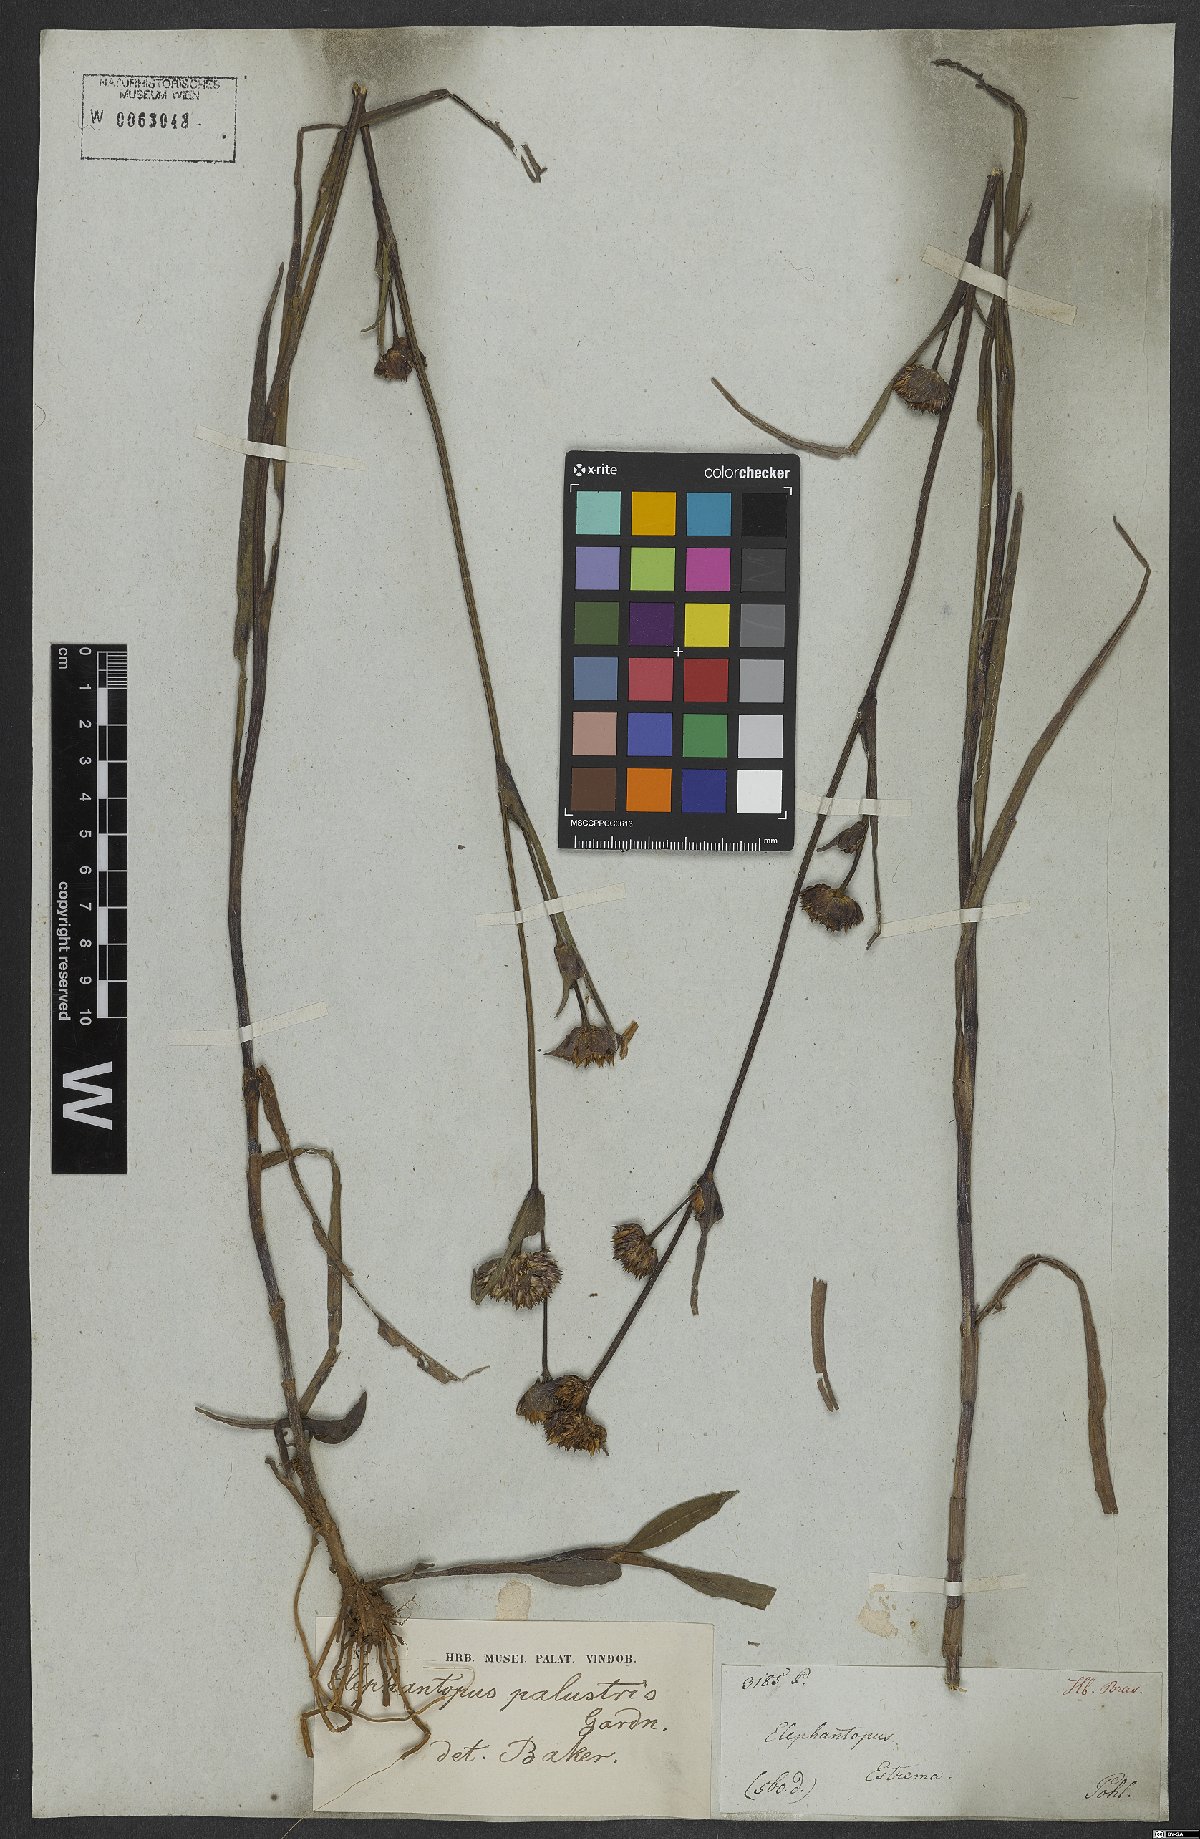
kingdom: Plantae
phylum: Tracheophyta
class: Magnoliopsida
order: Asterales
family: Asteraceae
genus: Elephantopus
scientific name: Elephantopus palustris
